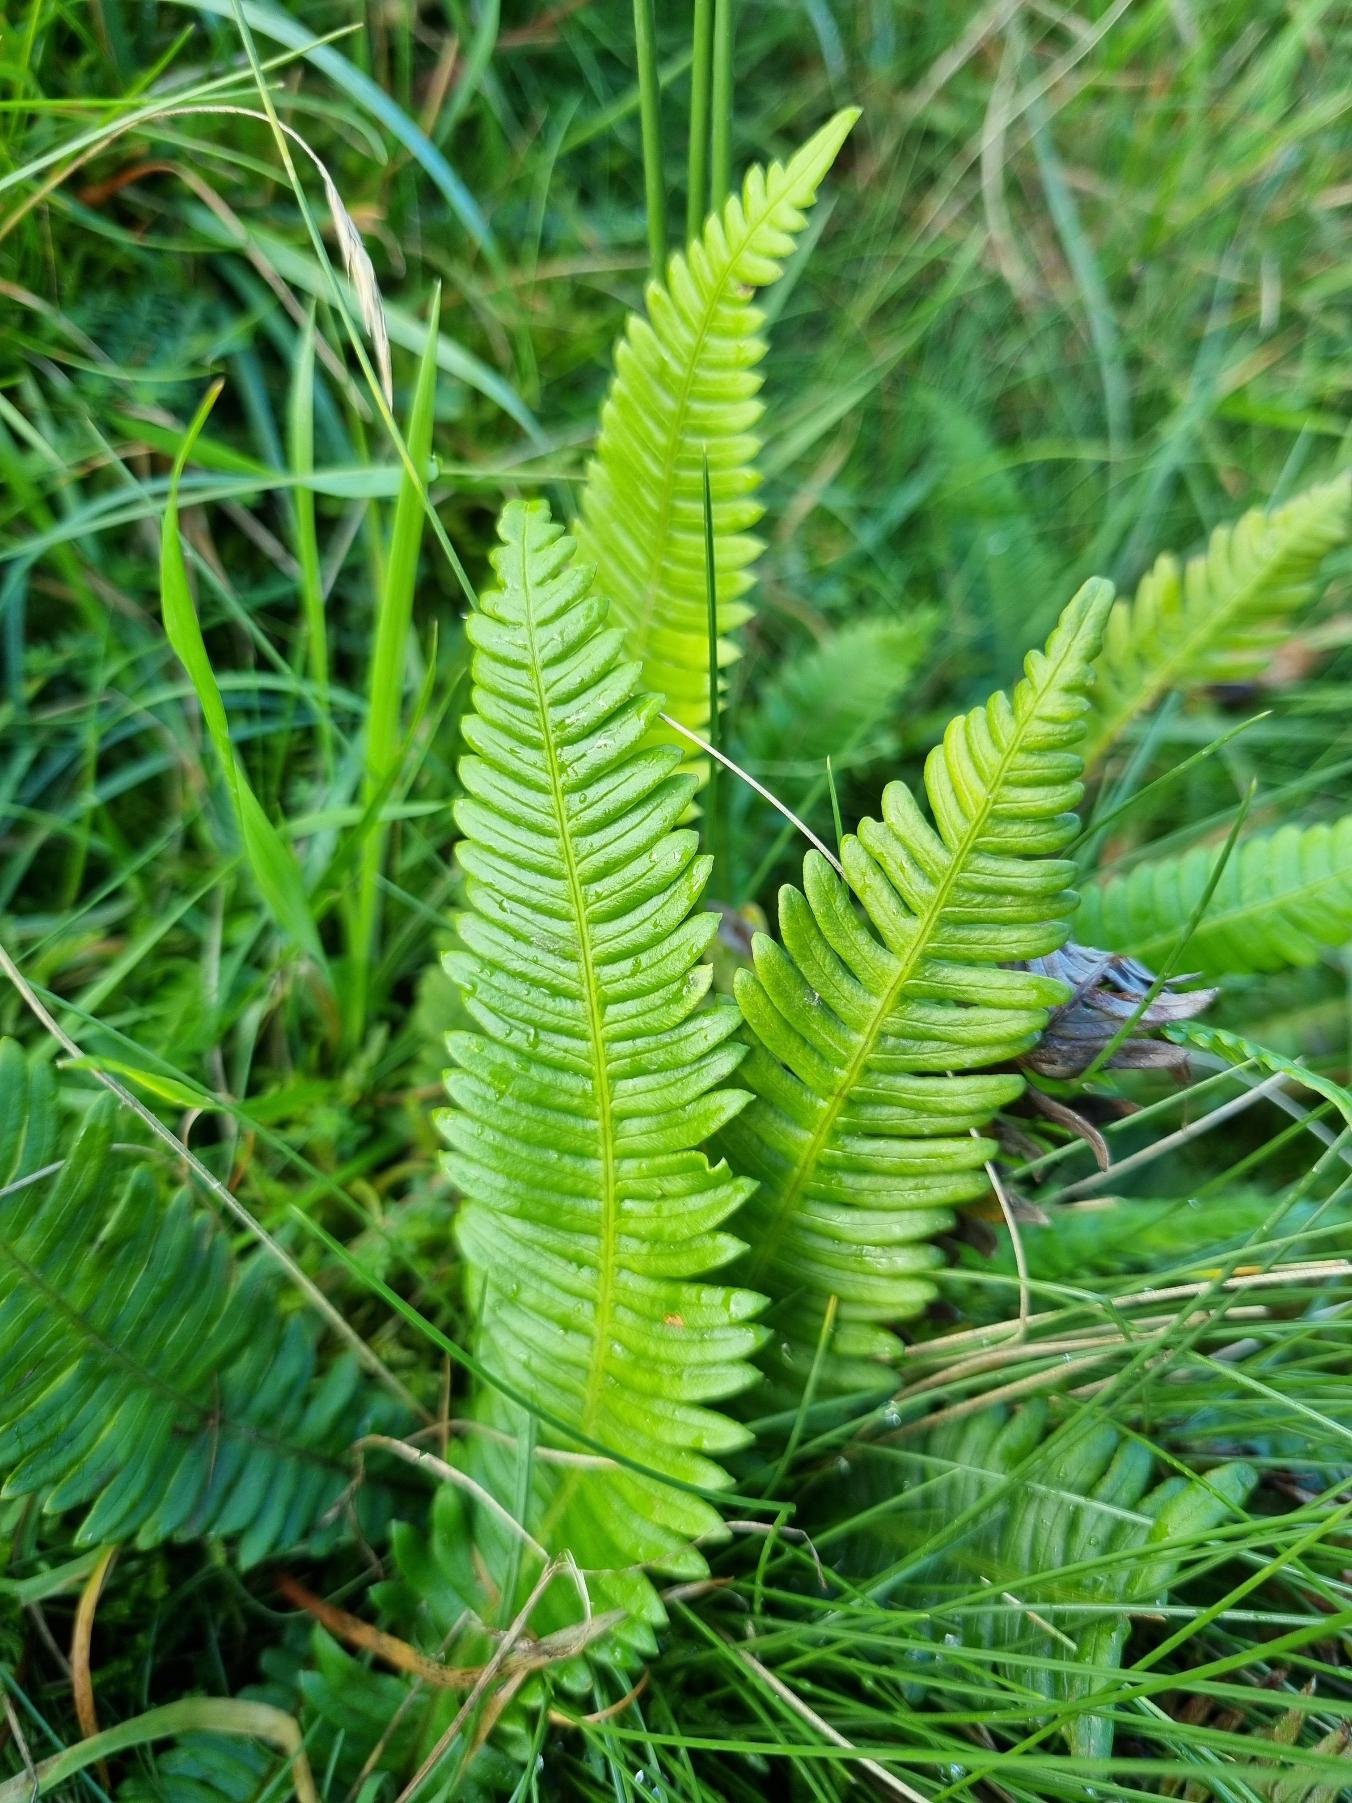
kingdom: Plantae
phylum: Tracheophyta
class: Polypodiopsida
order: Polypodiales
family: Blechnaceae
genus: Struthiopteris
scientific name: Struthiopteris spicant
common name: Kambregne
